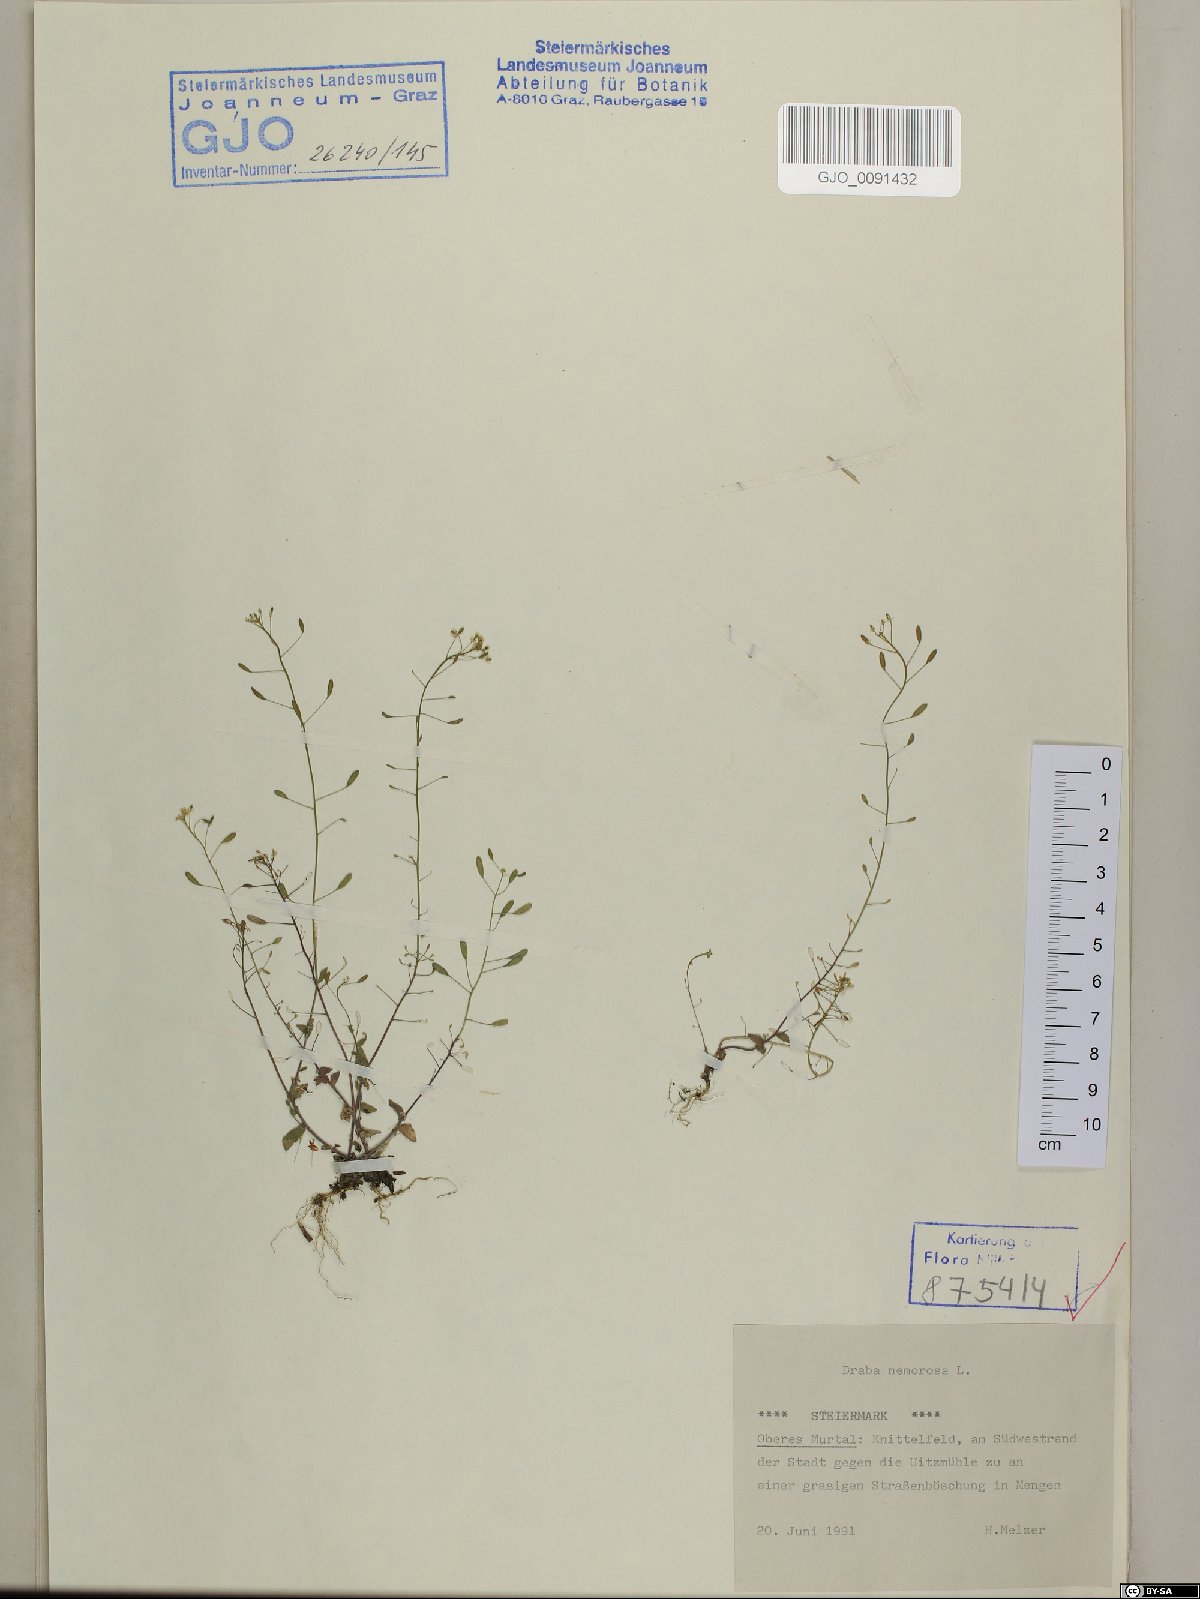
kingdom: Plantae
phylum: Tracheophyta
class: Magnoliopsida
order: Brassicales
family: Brassicaceae
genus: Draba
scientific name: Draba nemorosa
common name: Wood whitlow-grass
